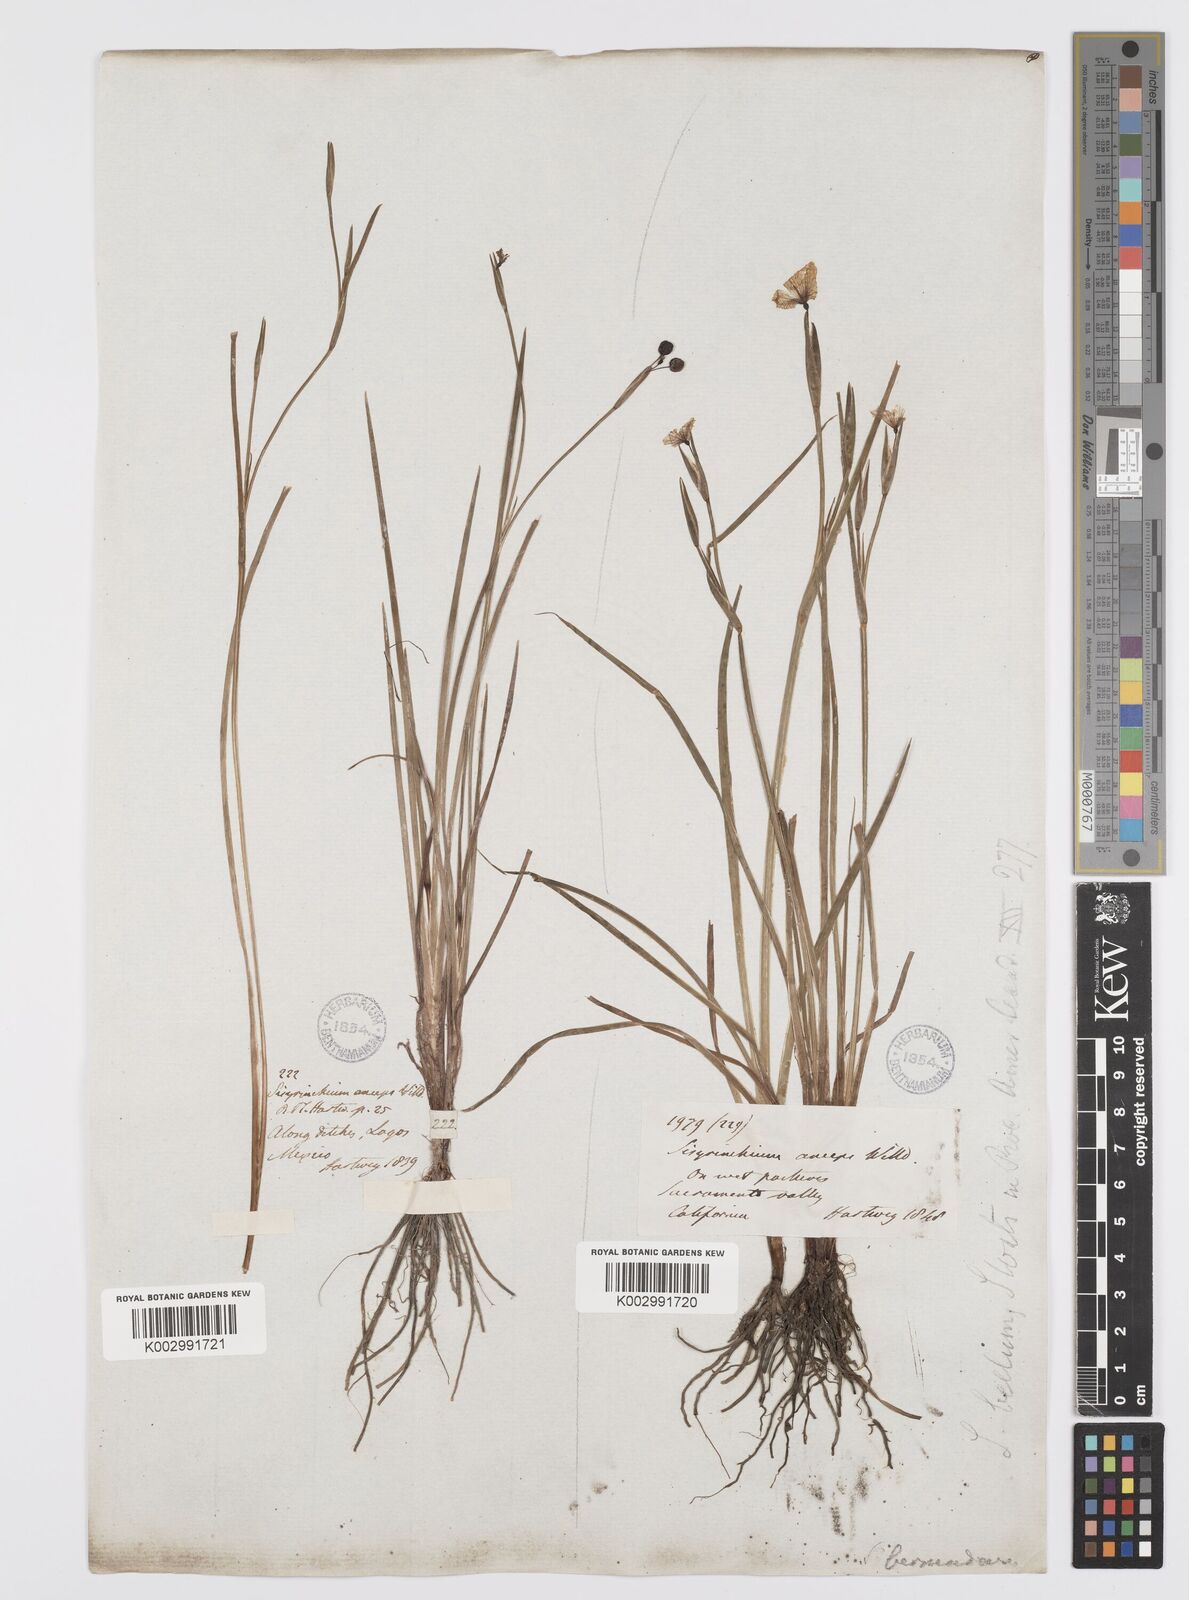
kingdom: Plantae
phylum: Tracheophyta
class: Liliopsida
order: Asparagales
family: Iridaceae
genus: Sisyrinchium
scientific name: Sisyrinchium bellum
